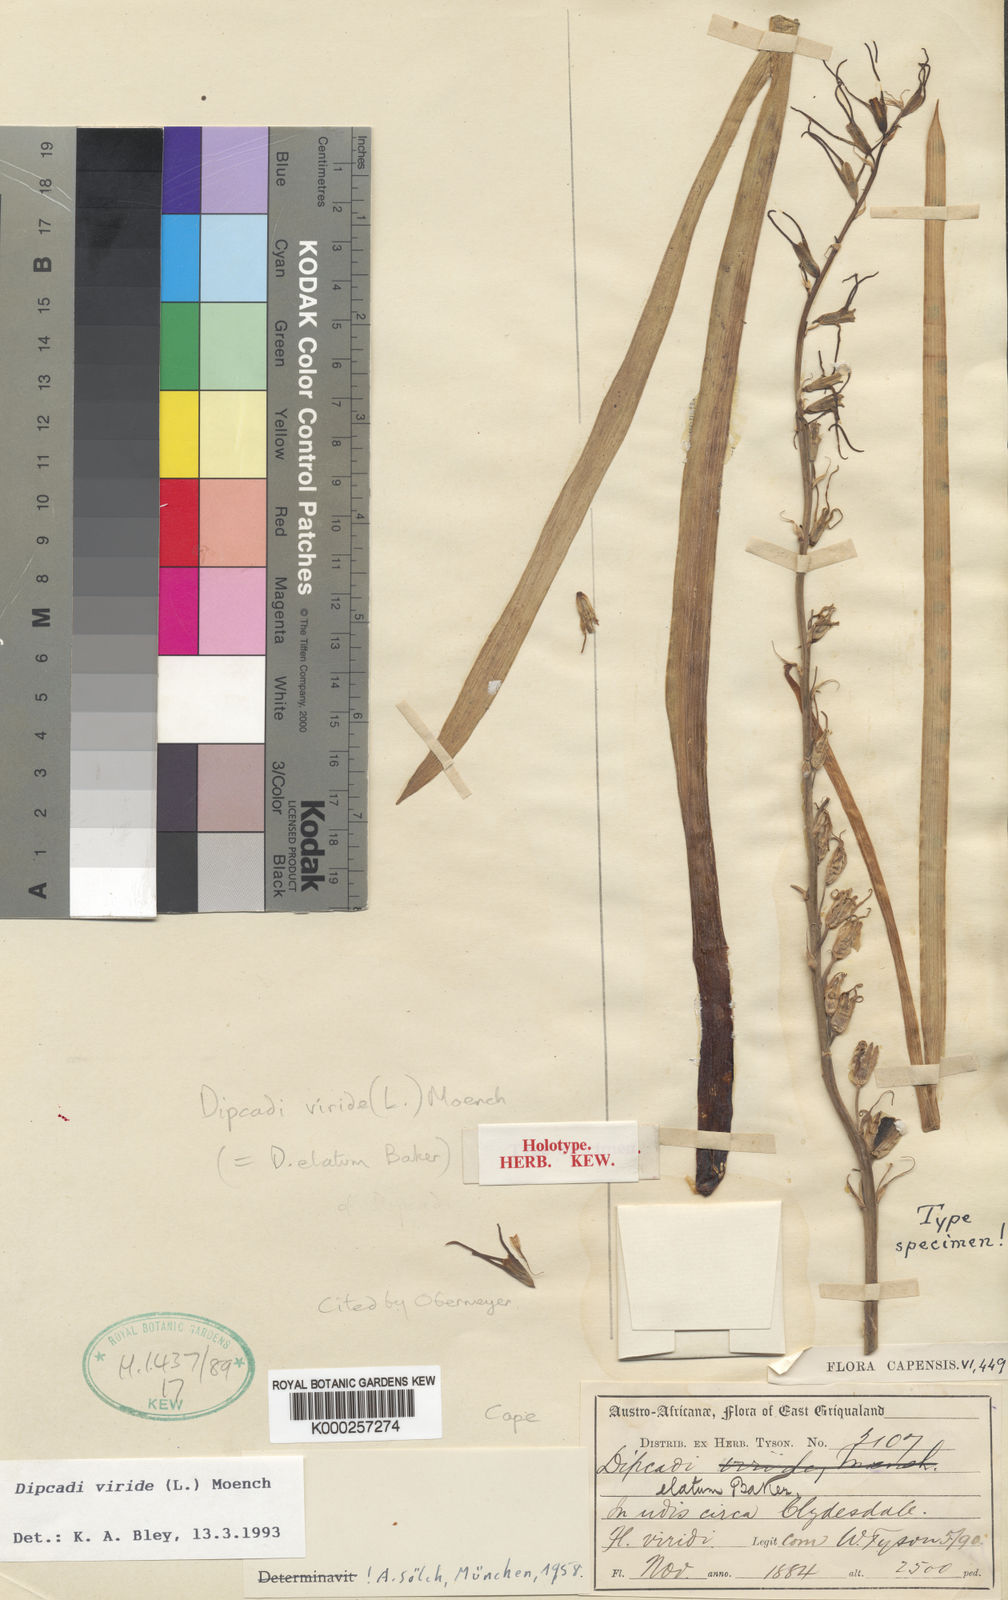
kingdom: Plantae
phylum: Tracheophyta
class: Liliopsida
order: Asparagales
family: Asparagaceae
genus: Dipcadi
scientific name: Dipcadi viride
